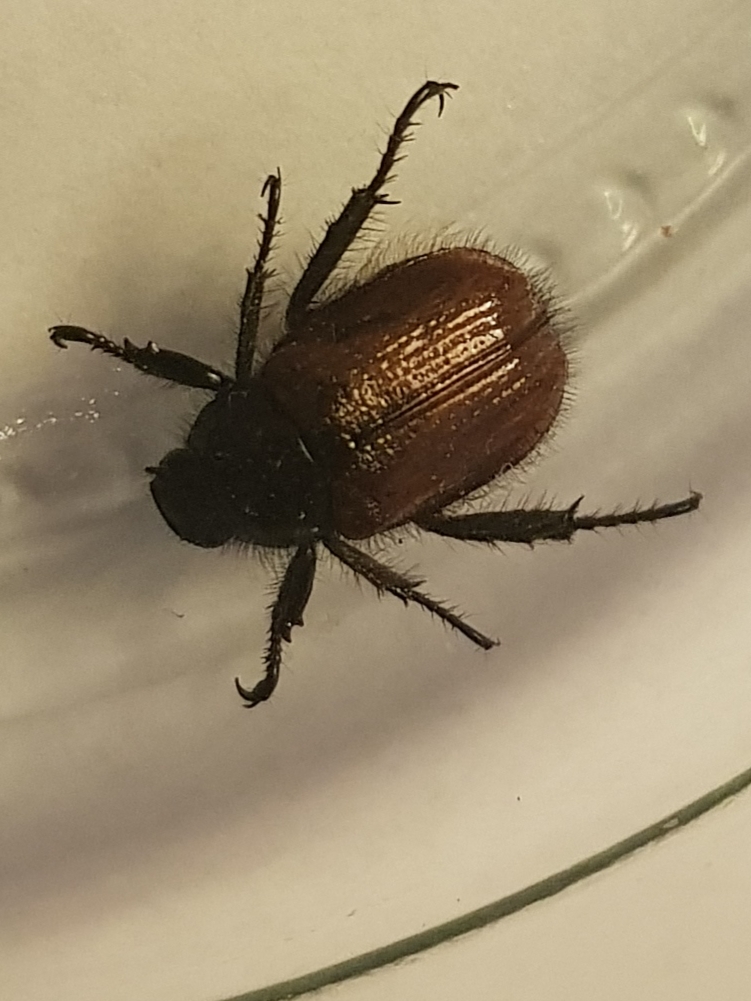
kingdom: Animalia
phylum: Arthropoda
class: Insecta
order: Coleoptera
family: Scarabaeidae
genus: Phyllopertha
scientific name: Phyllopertha horticola
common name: Gåsebille
